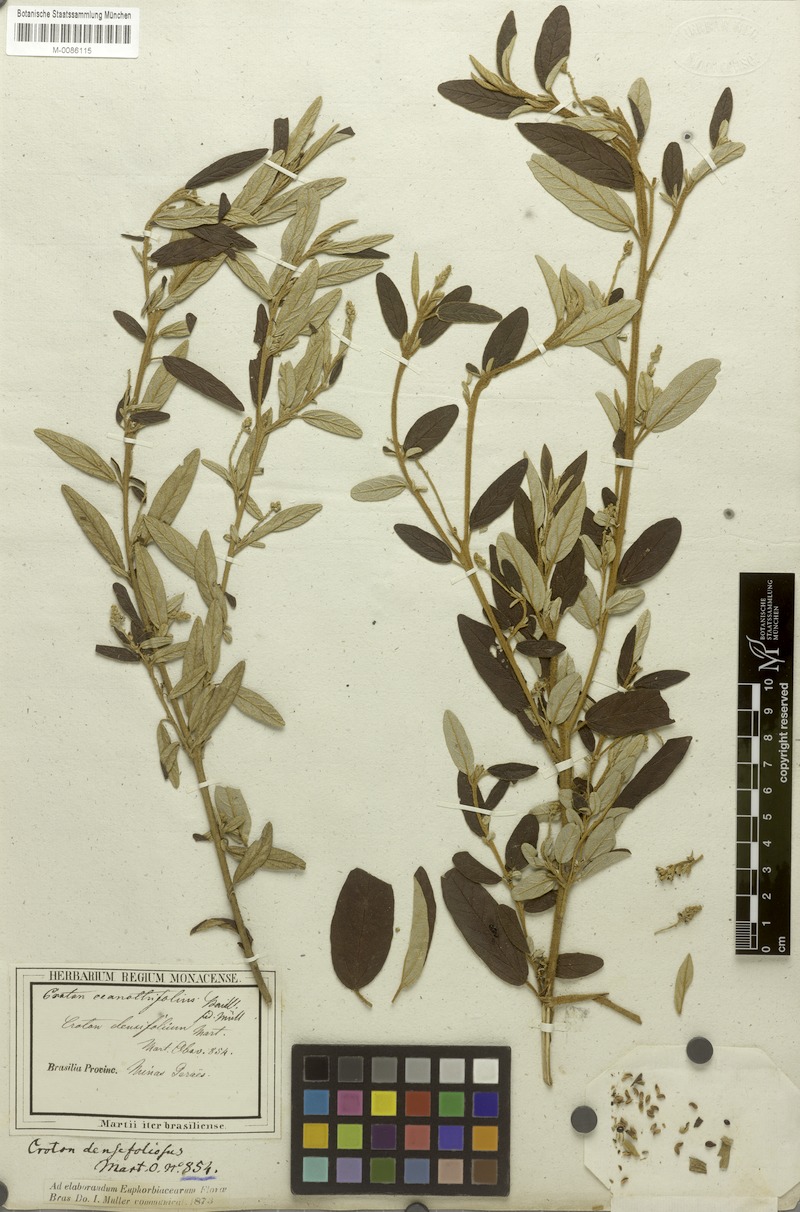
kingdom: Plantae
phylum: Tracheophyta
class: Magnoliopsida
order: Malpighiales
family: Euphorbiaceae
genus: Croton
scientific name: Croton ceanothifolius
